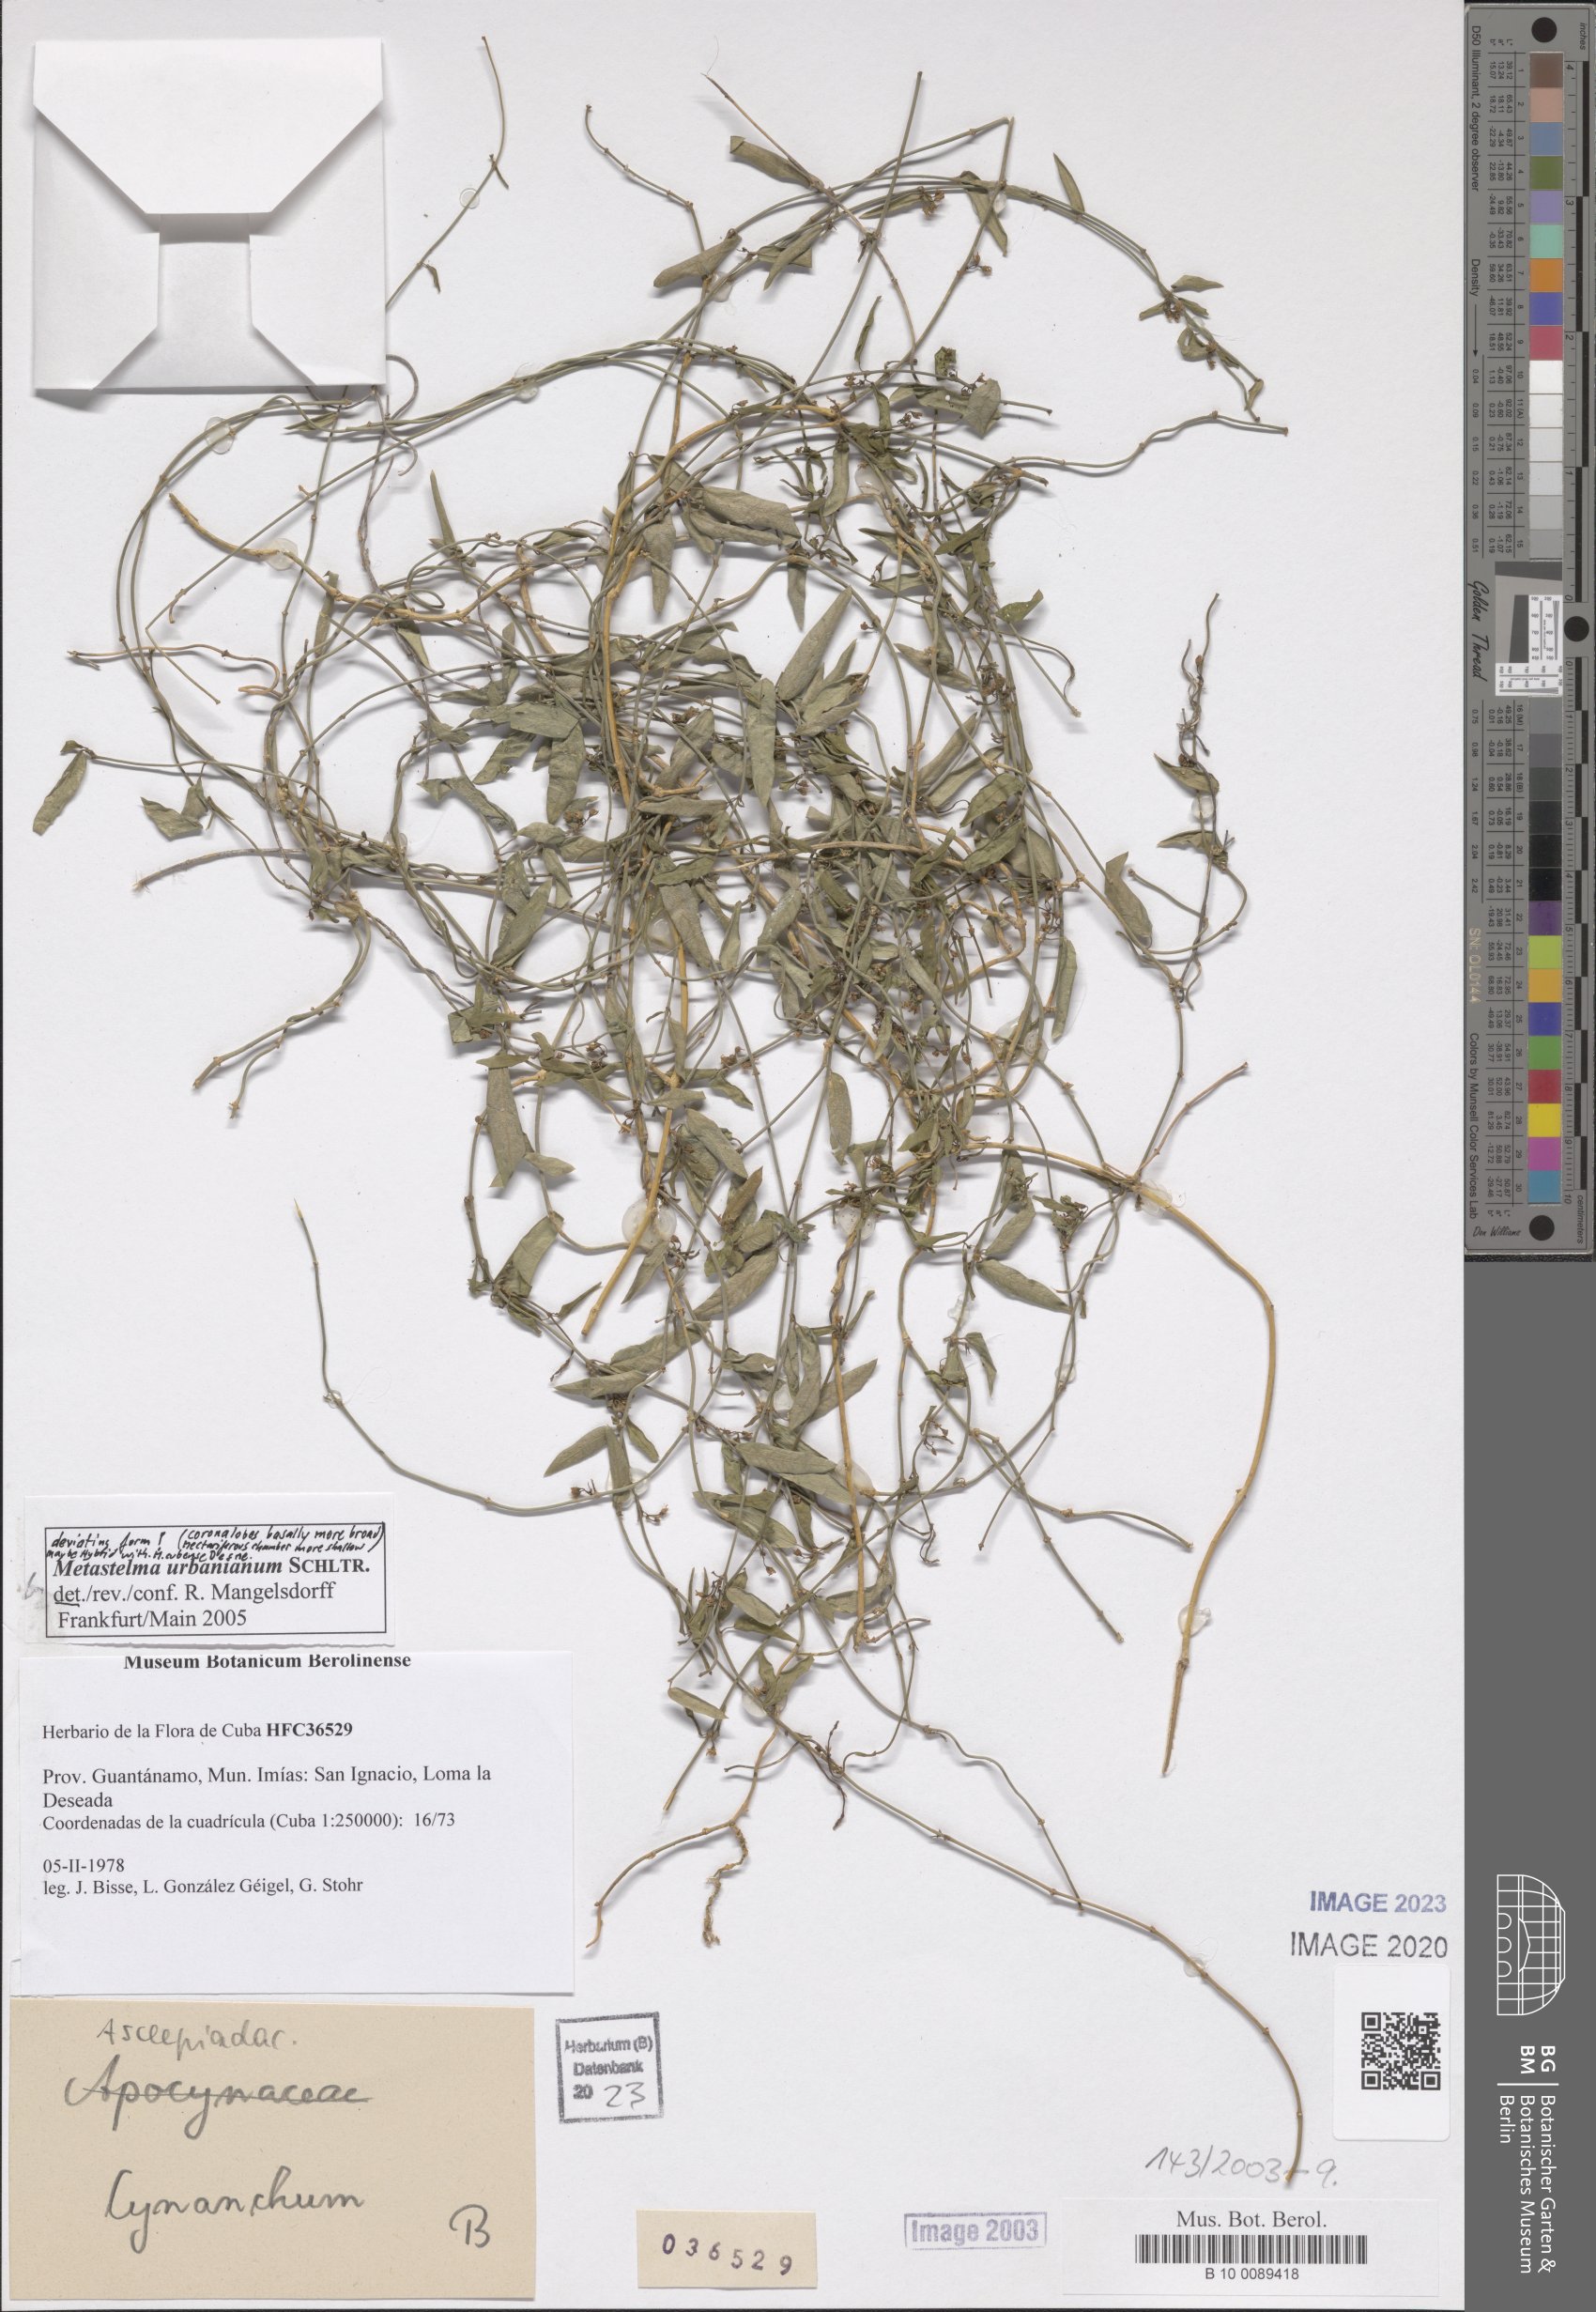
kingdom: Plantae
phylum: Tracheophyta
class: Magnoliopsida
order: Gentianales
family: Apocynaceae
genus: Metastelma
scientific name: Metastelma urbanianum
